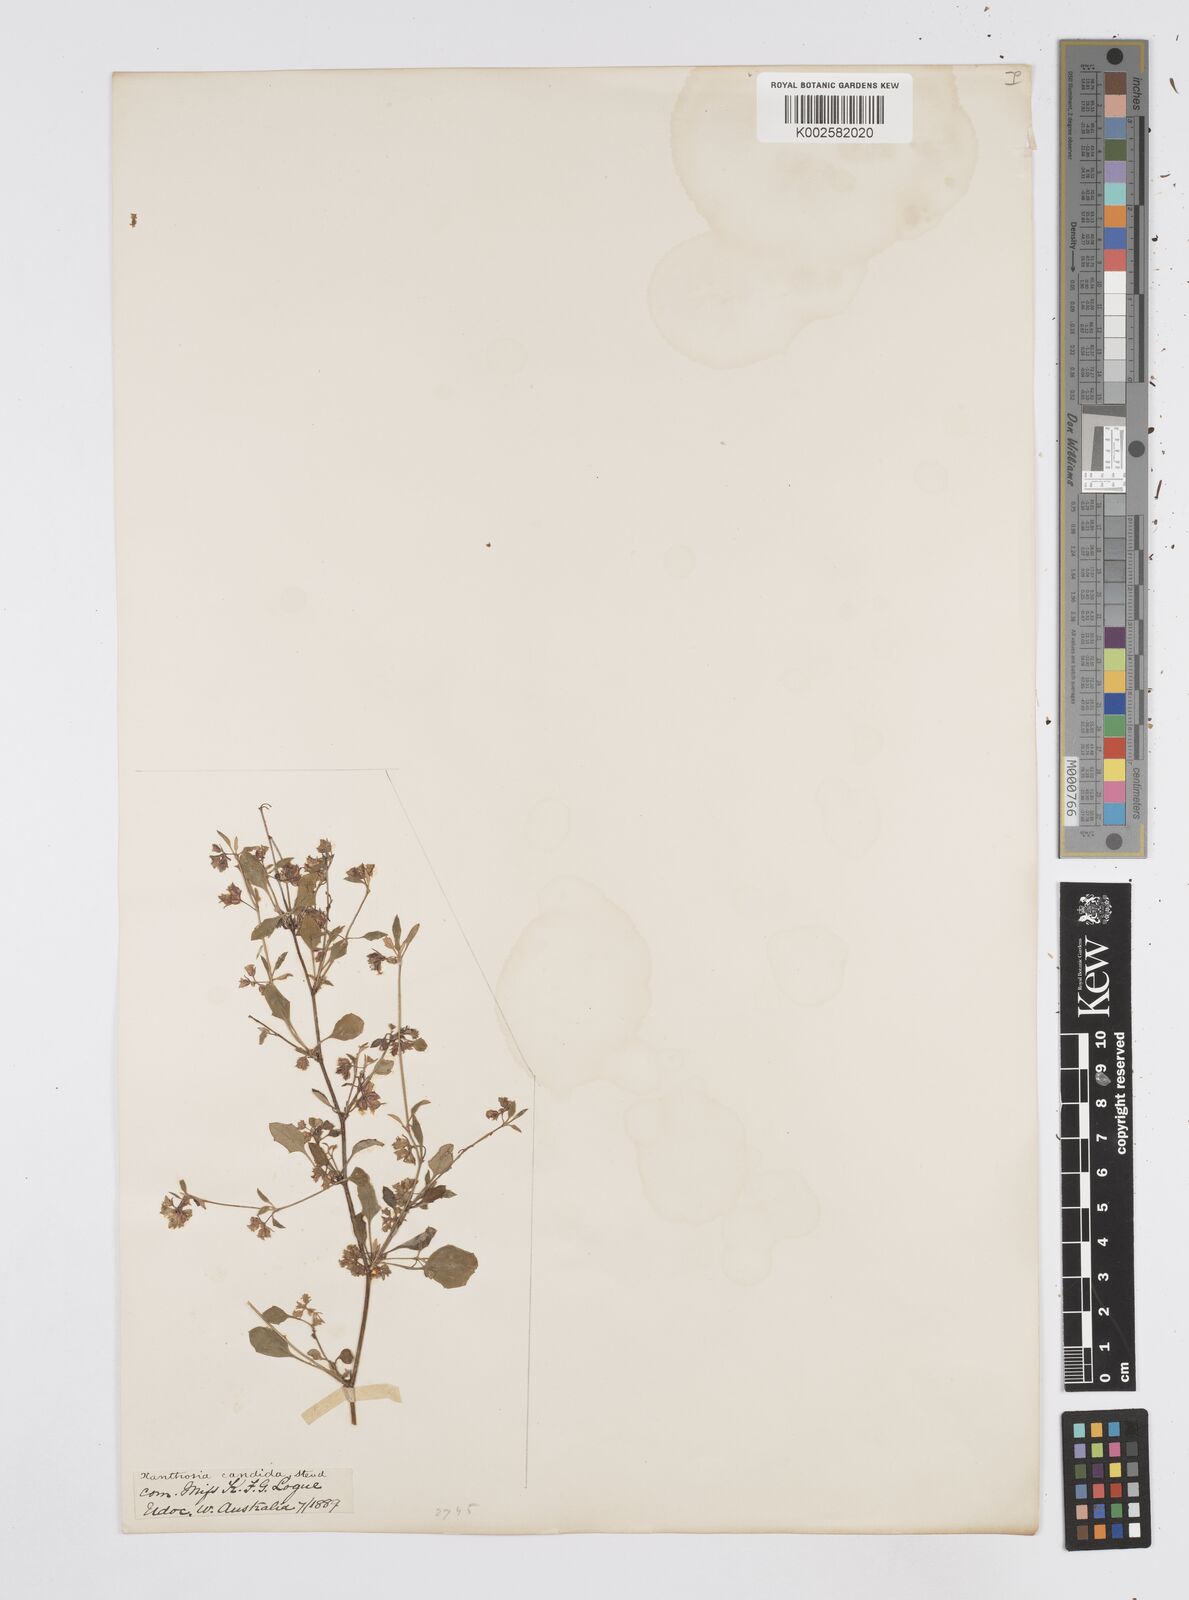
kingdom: Plantae
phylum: Tracheophyta
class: Magnoliopsida
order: Apiales
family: Apiaceae
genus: Xanthosia
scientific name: Xanthosia candida
